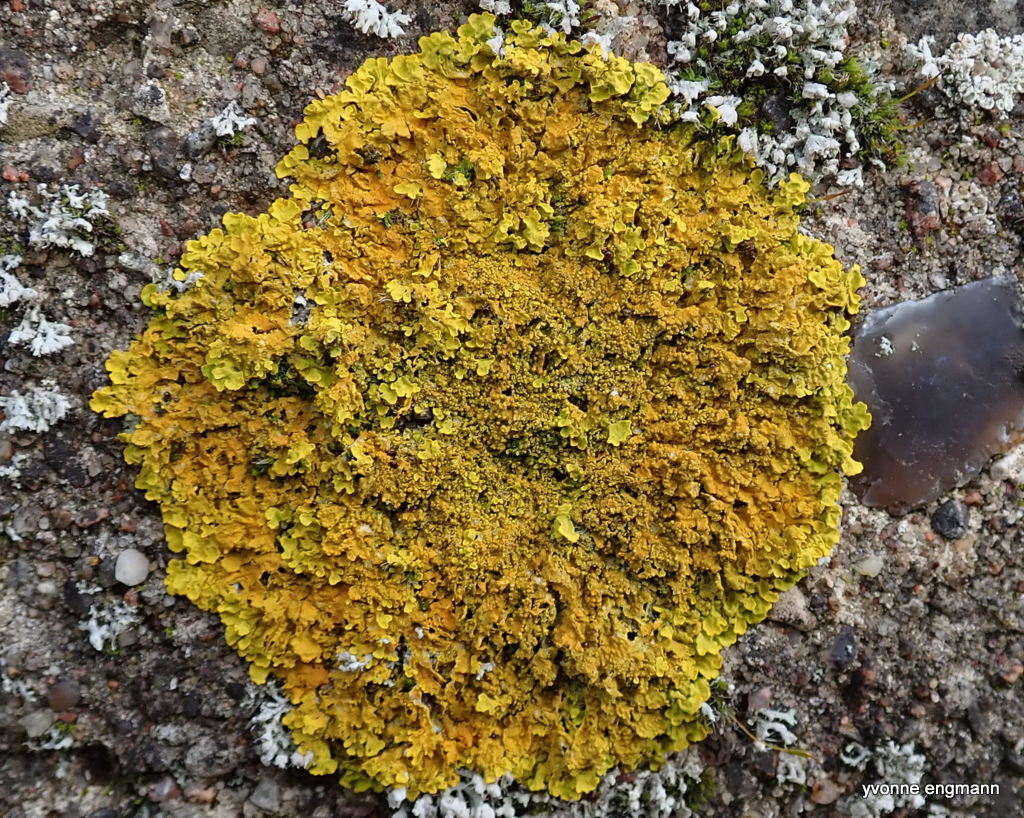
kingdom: Fungi
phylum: Ascomycota
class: Lecanoromycetes
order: Teloschistales
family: Teloschistaceae
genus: Xanthoria
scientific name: Xanthoria parietina
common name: almindelig væggelav
